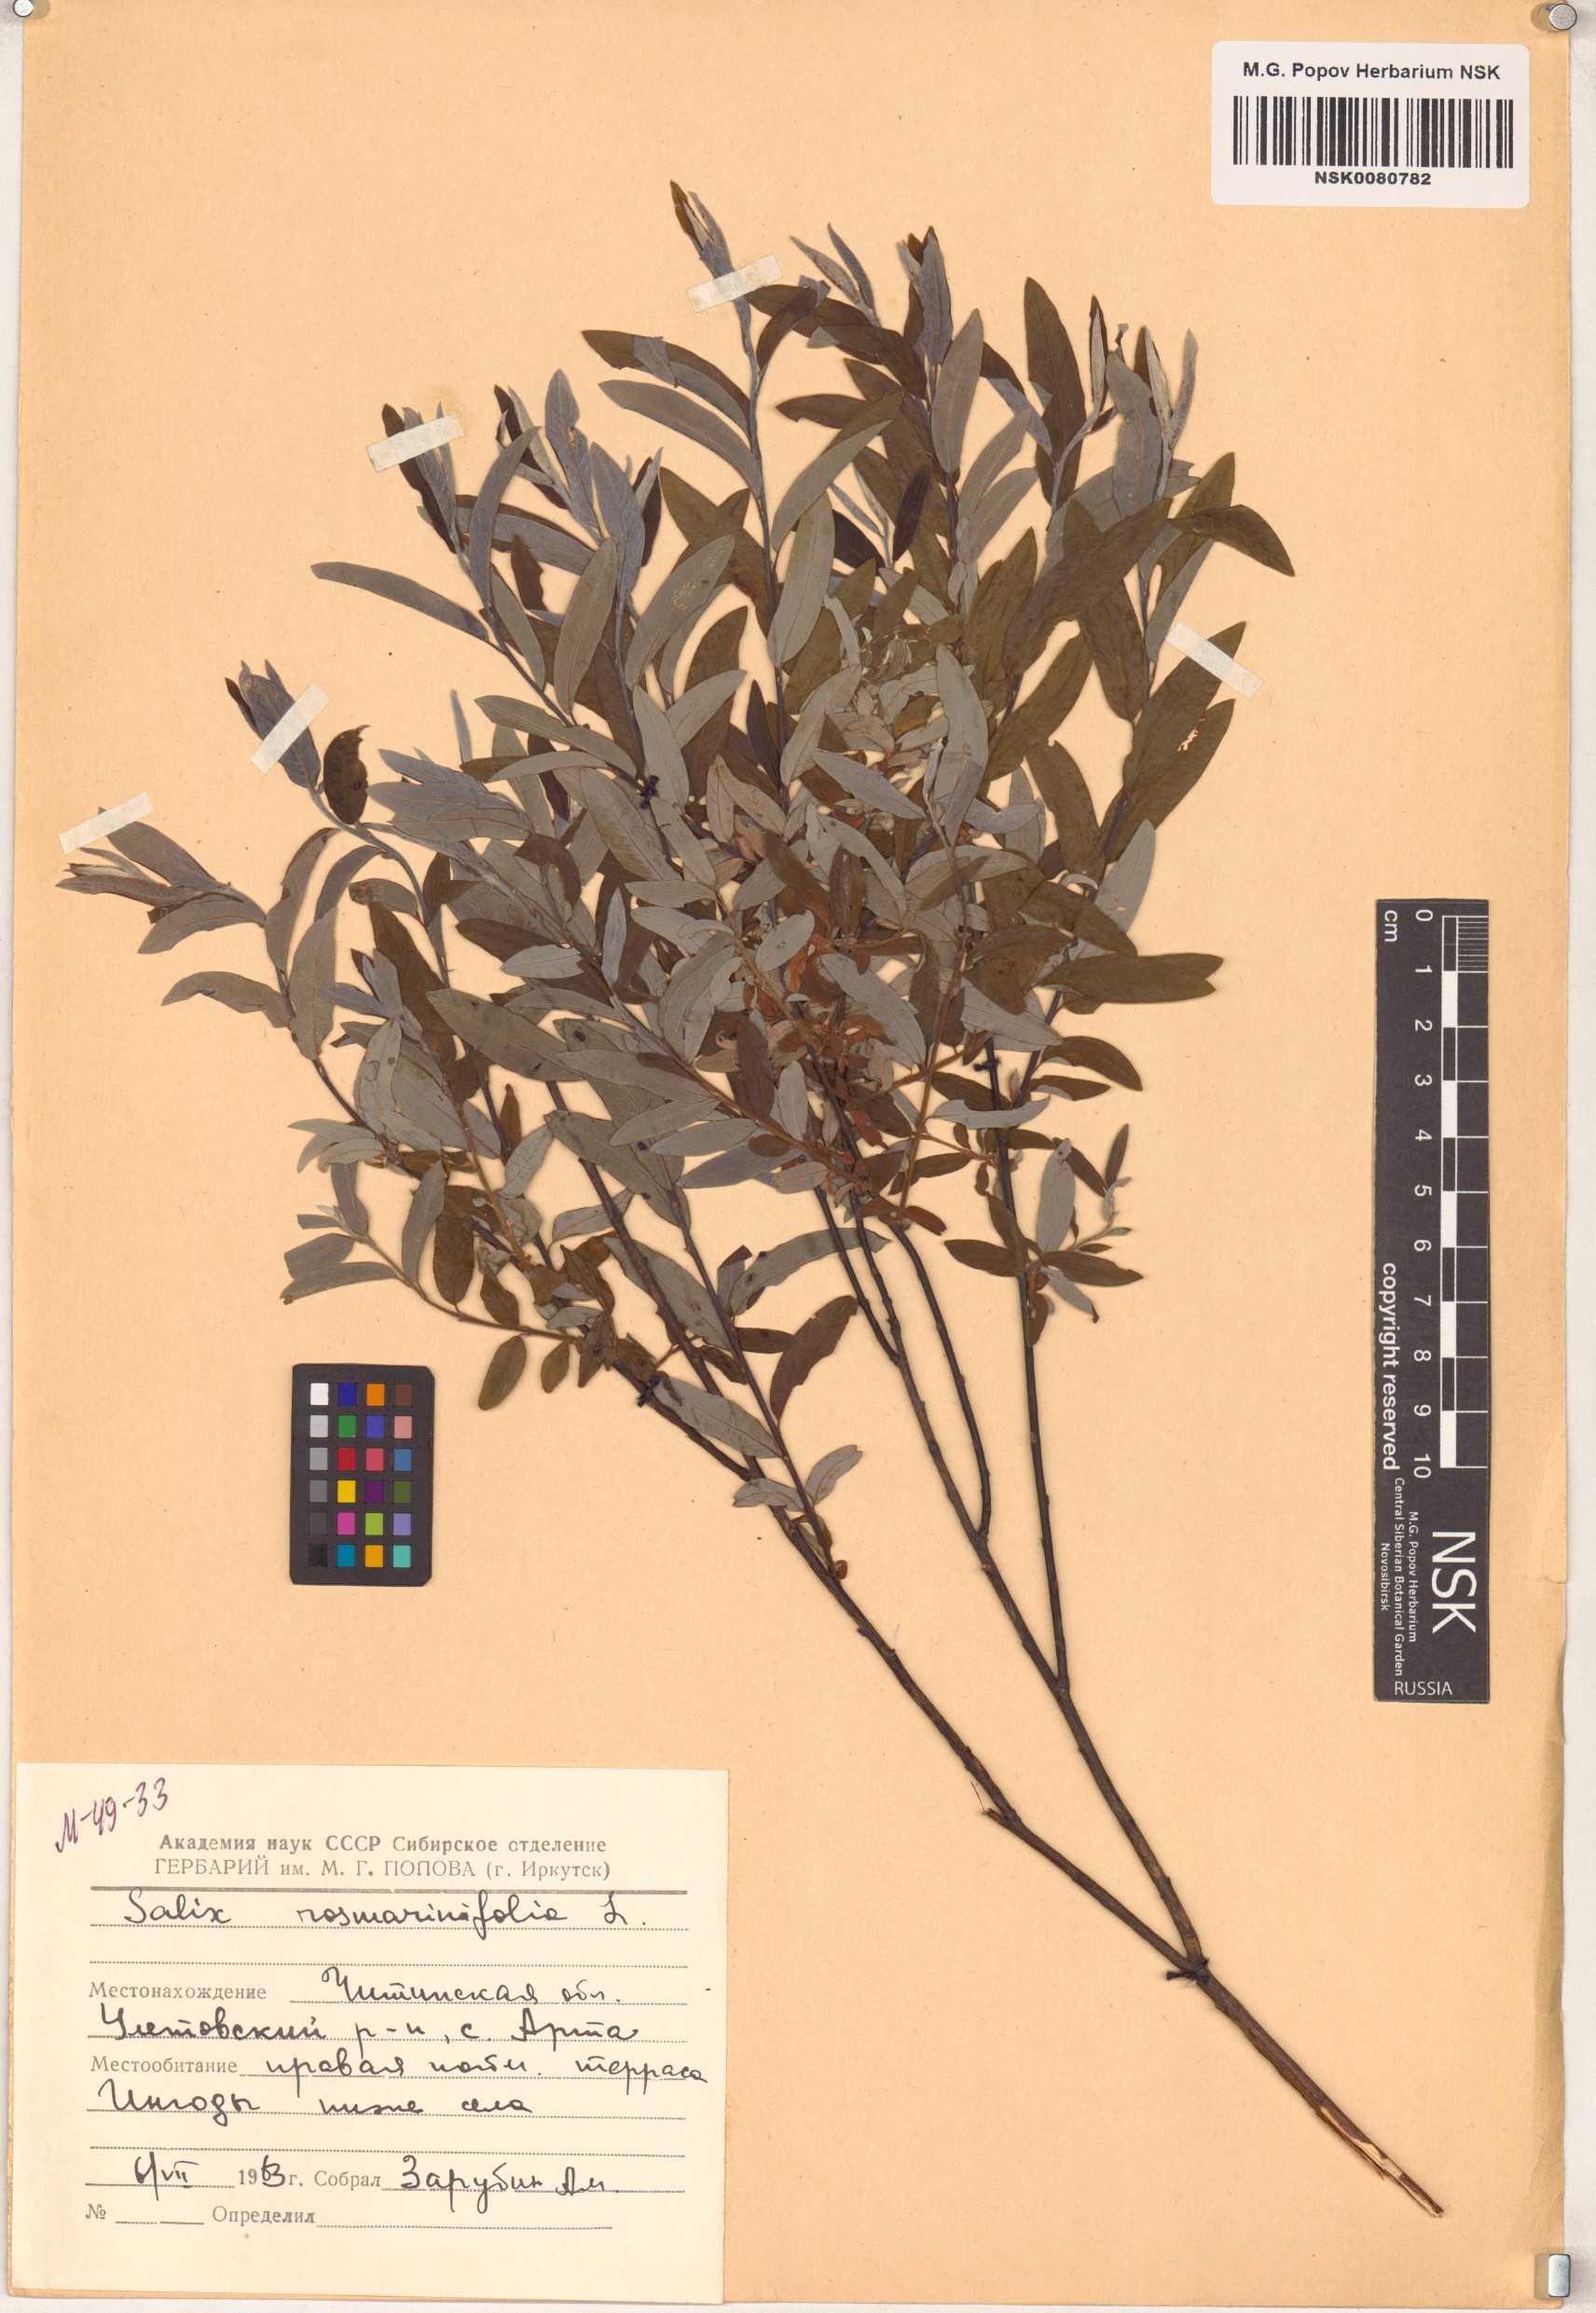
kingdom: Plantae
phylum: Tracheophyta
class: Magnoliopsida
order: Malpighiales
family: Salicaceae
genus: Salix
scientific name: Salix rosmarinifolia
